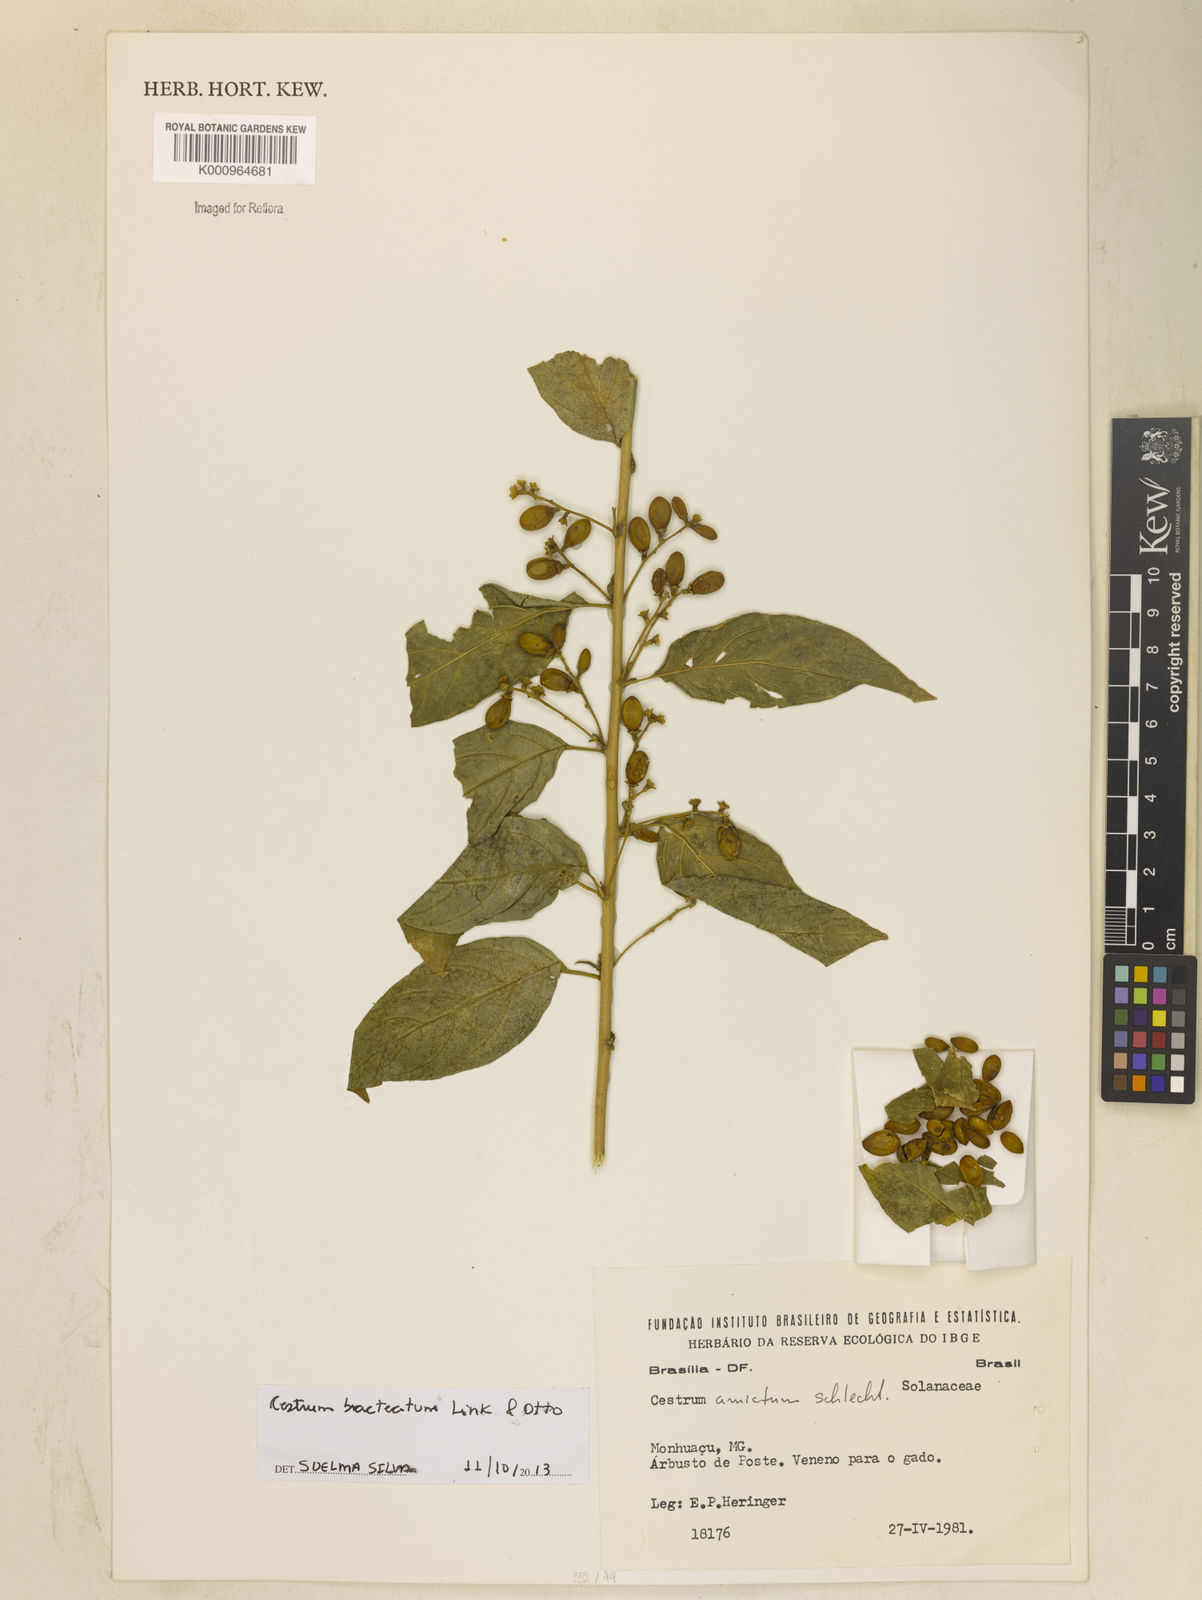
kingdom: Plantae
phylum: Tracheophyta
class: Magnoliopsida
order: Solanales
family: Solanaceae
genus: Cestrum
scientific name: Cestrum bracteatum
